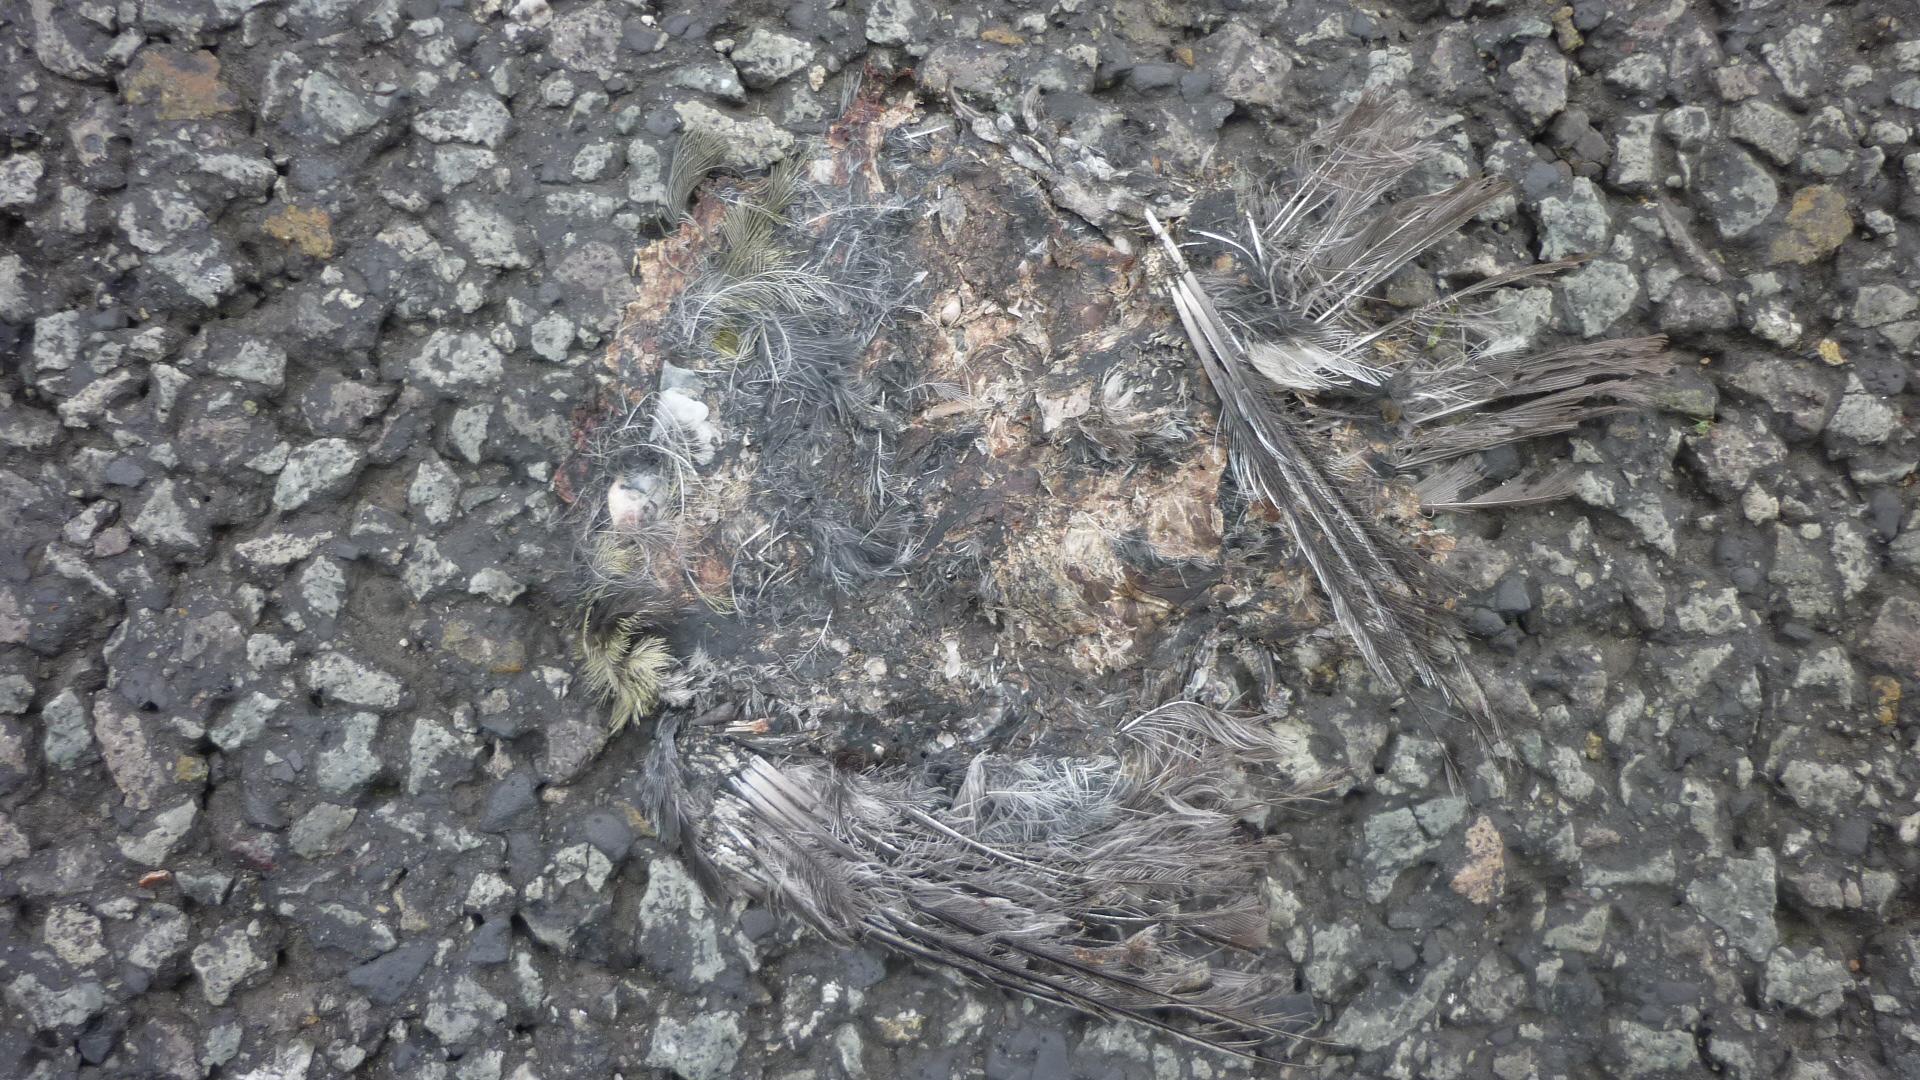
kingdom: Animalia
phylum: Chordata
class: Aves
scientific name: Aves
